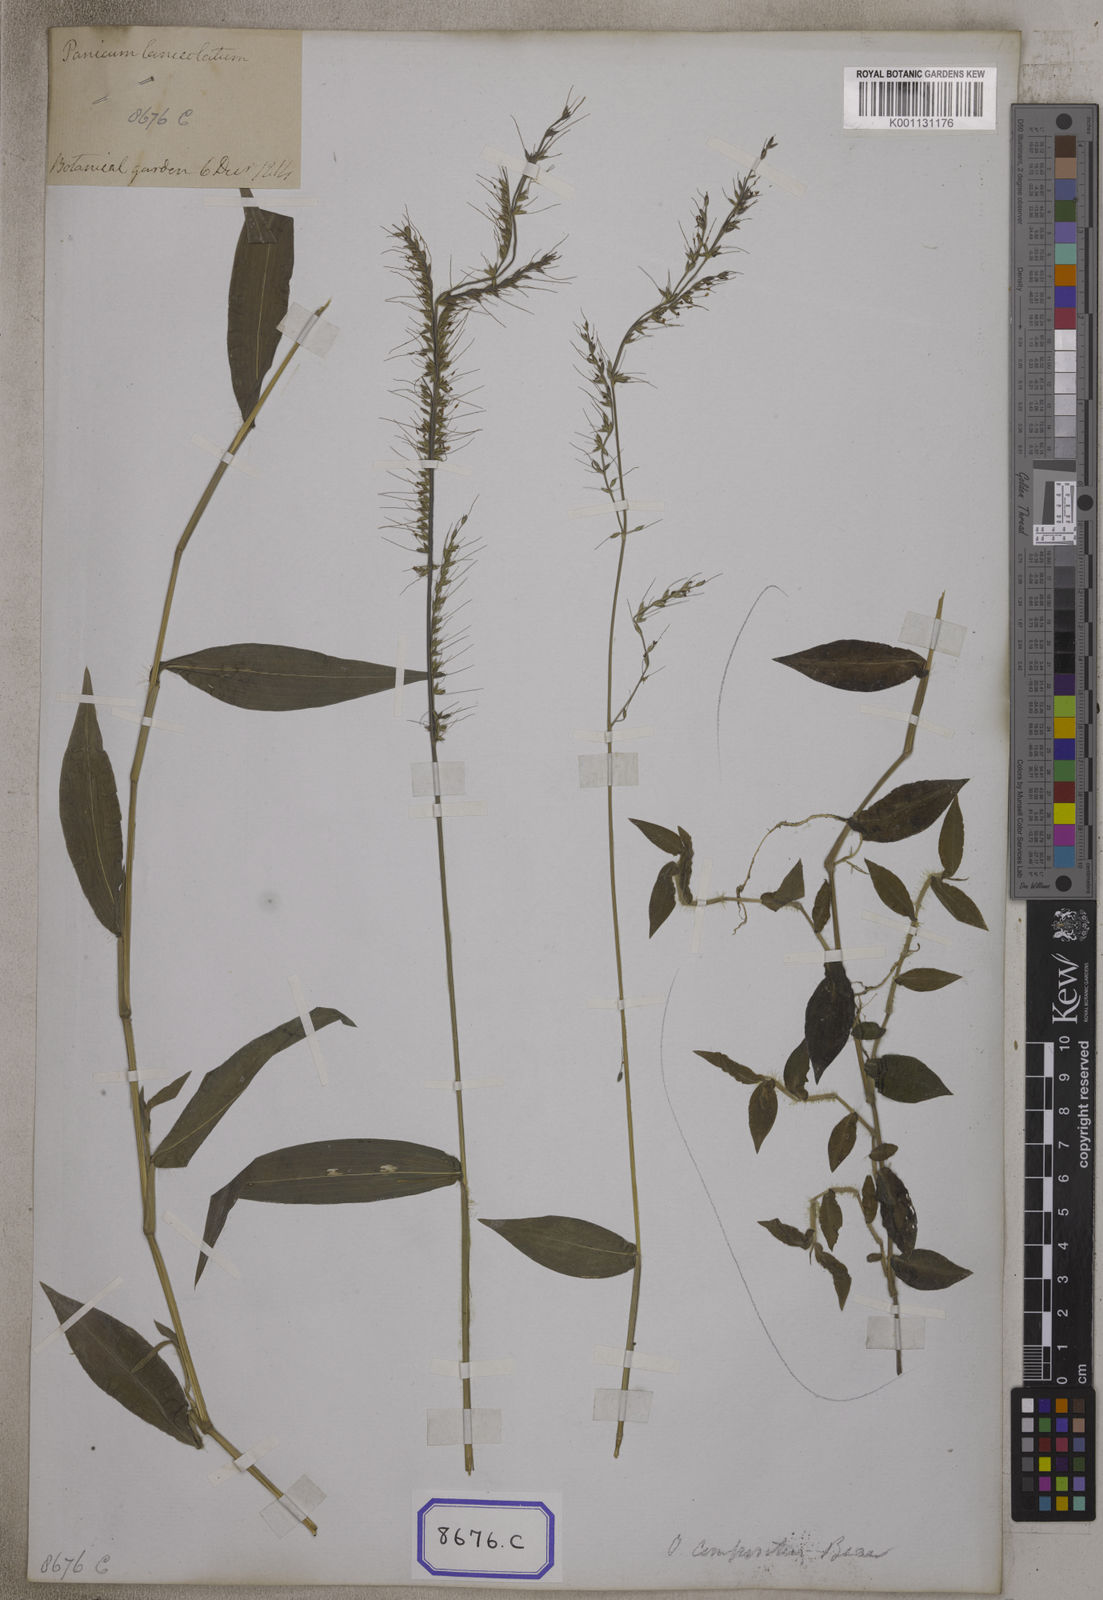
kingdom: Plantae
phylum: Tracheophyta
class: Liliopsida
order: Poales
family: Poaceae
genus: Oplismenus
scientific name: Oplismenus compositus
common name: Running mountain grass
